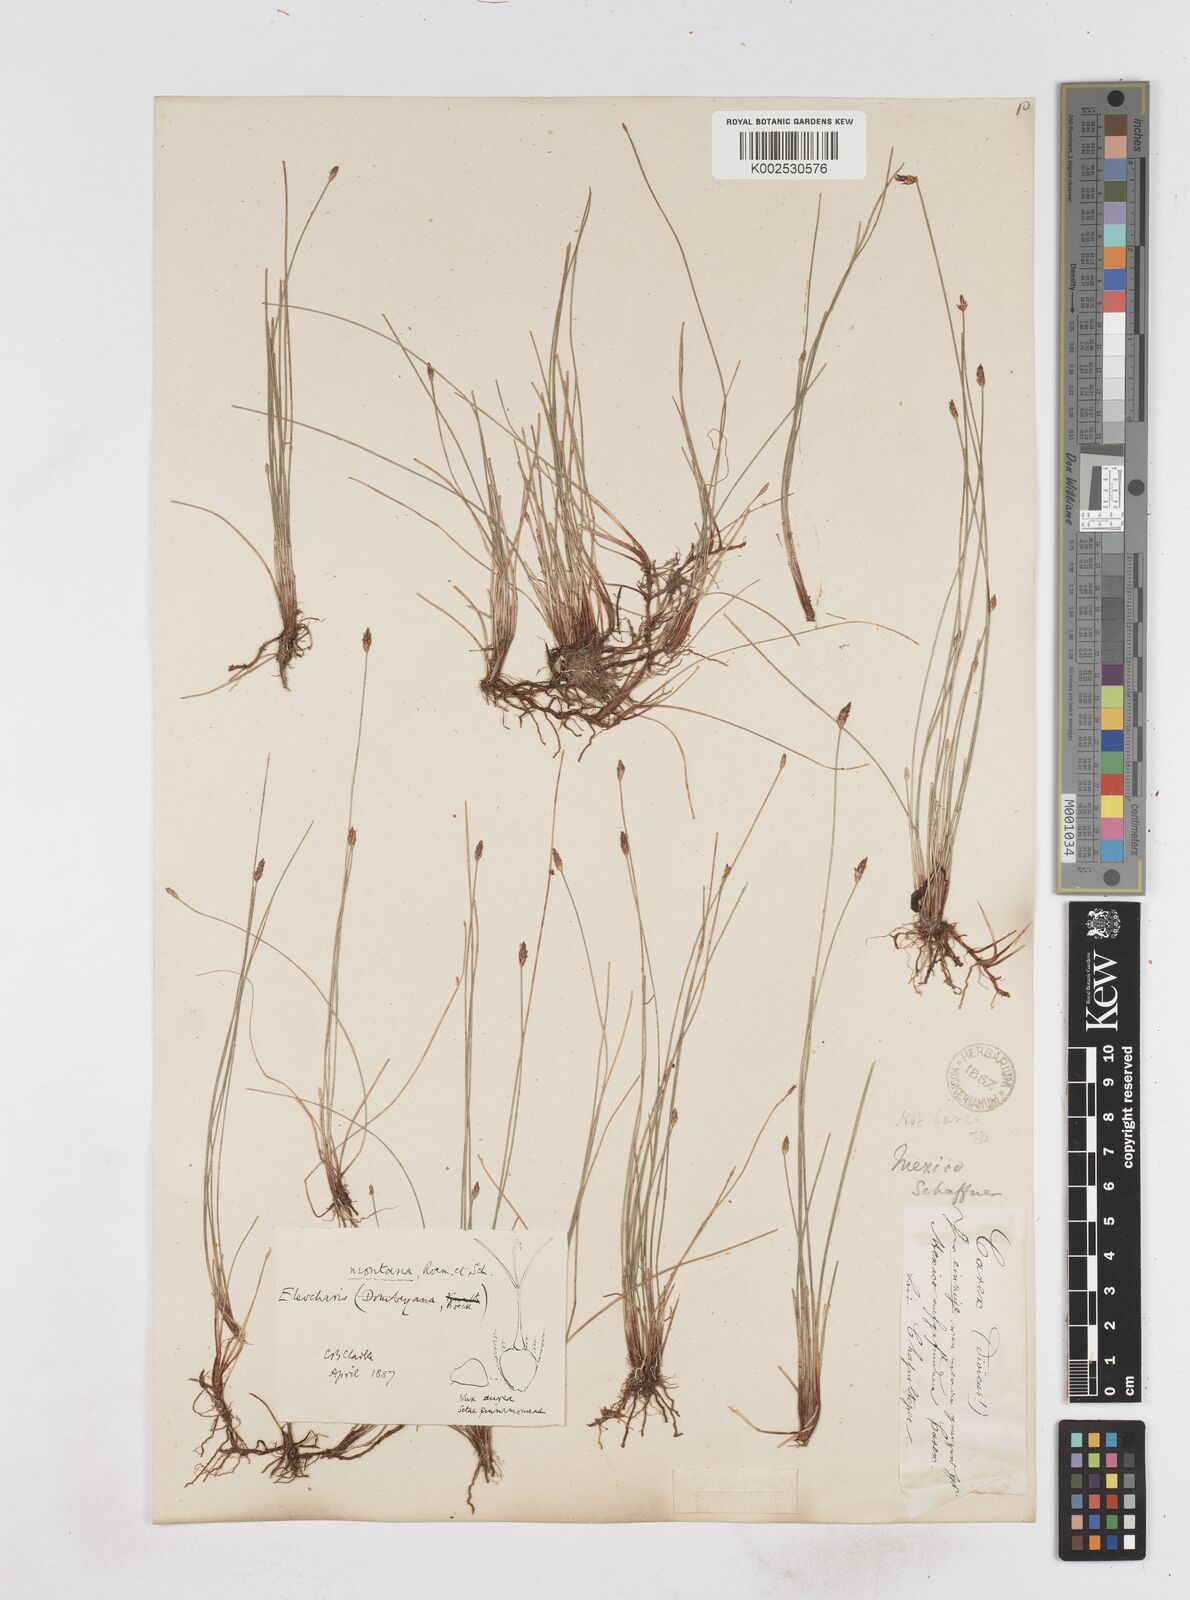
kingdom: Plantae
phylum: Tracheophyta
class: Liliopsida
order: Poales
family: Cyperaceae
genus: Eleocharis
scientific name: Eleocharis montana
